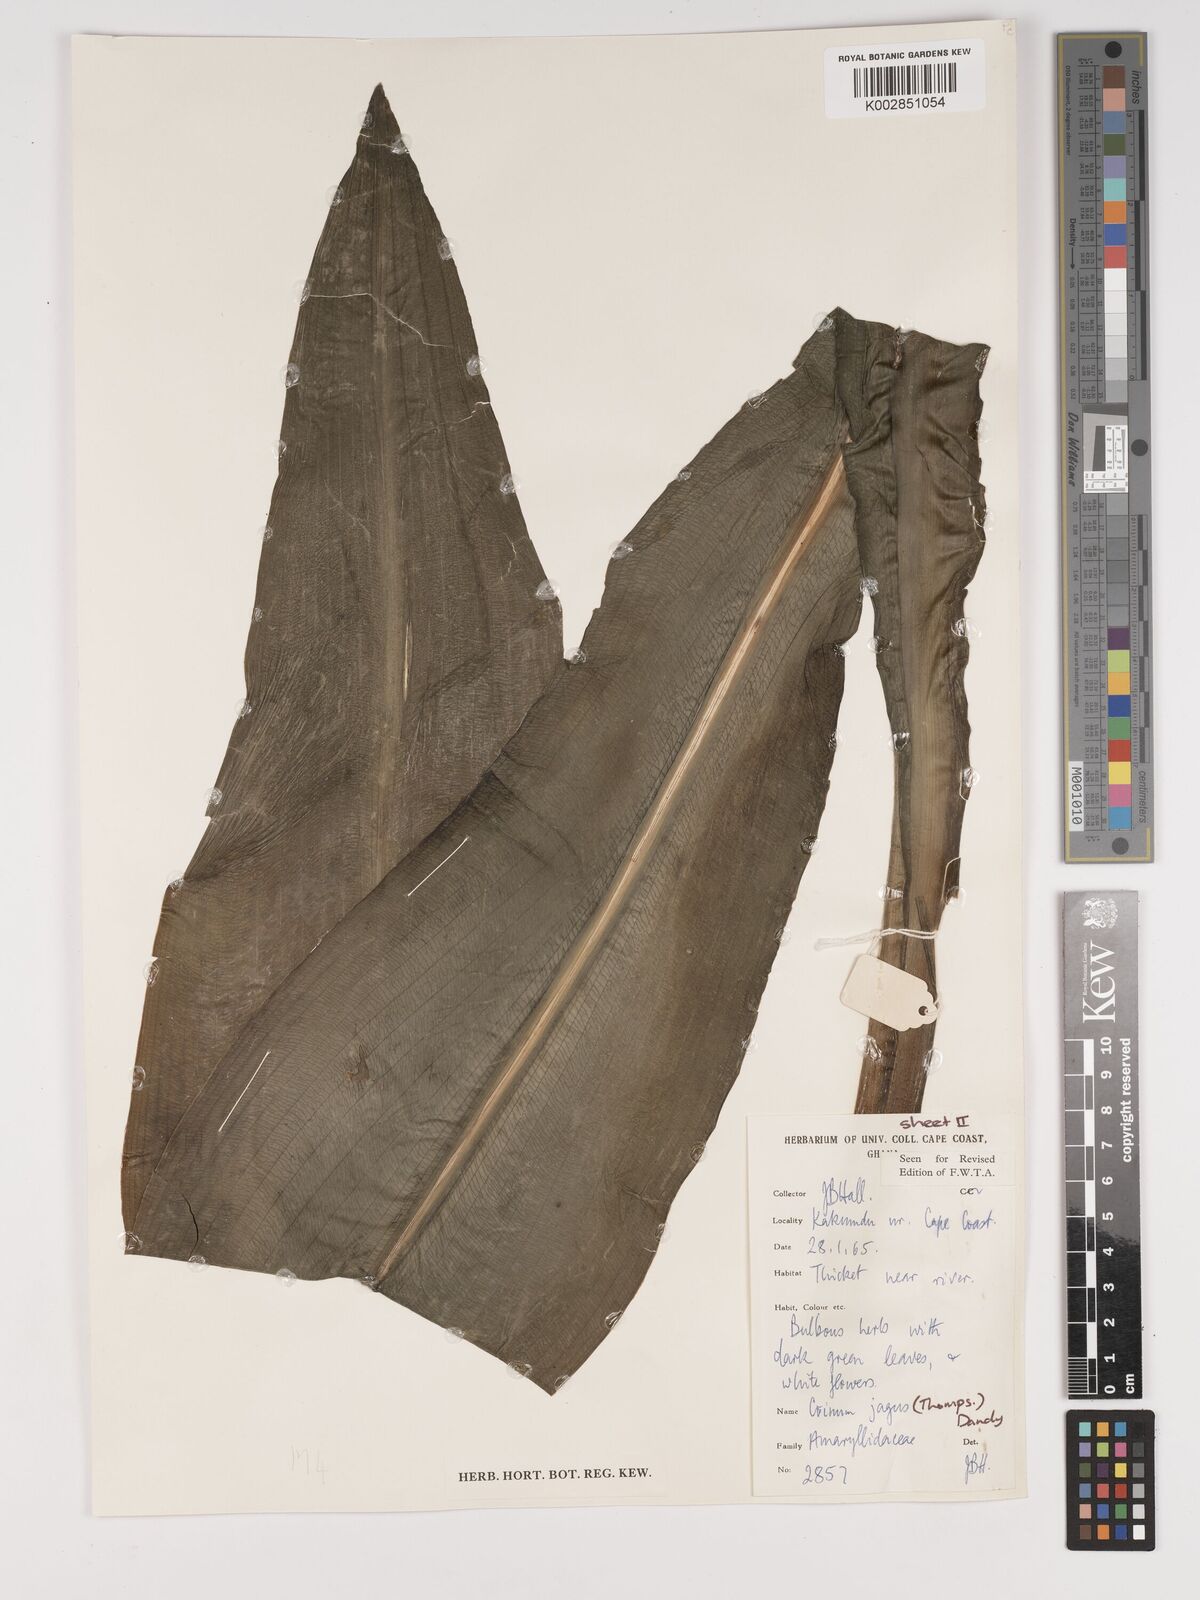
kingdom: Plantae
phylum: Tracheophyta
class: Liliopsida
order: Asparagales
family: Amaryllidaceae
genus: Crinum
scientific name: Crinum jagus
